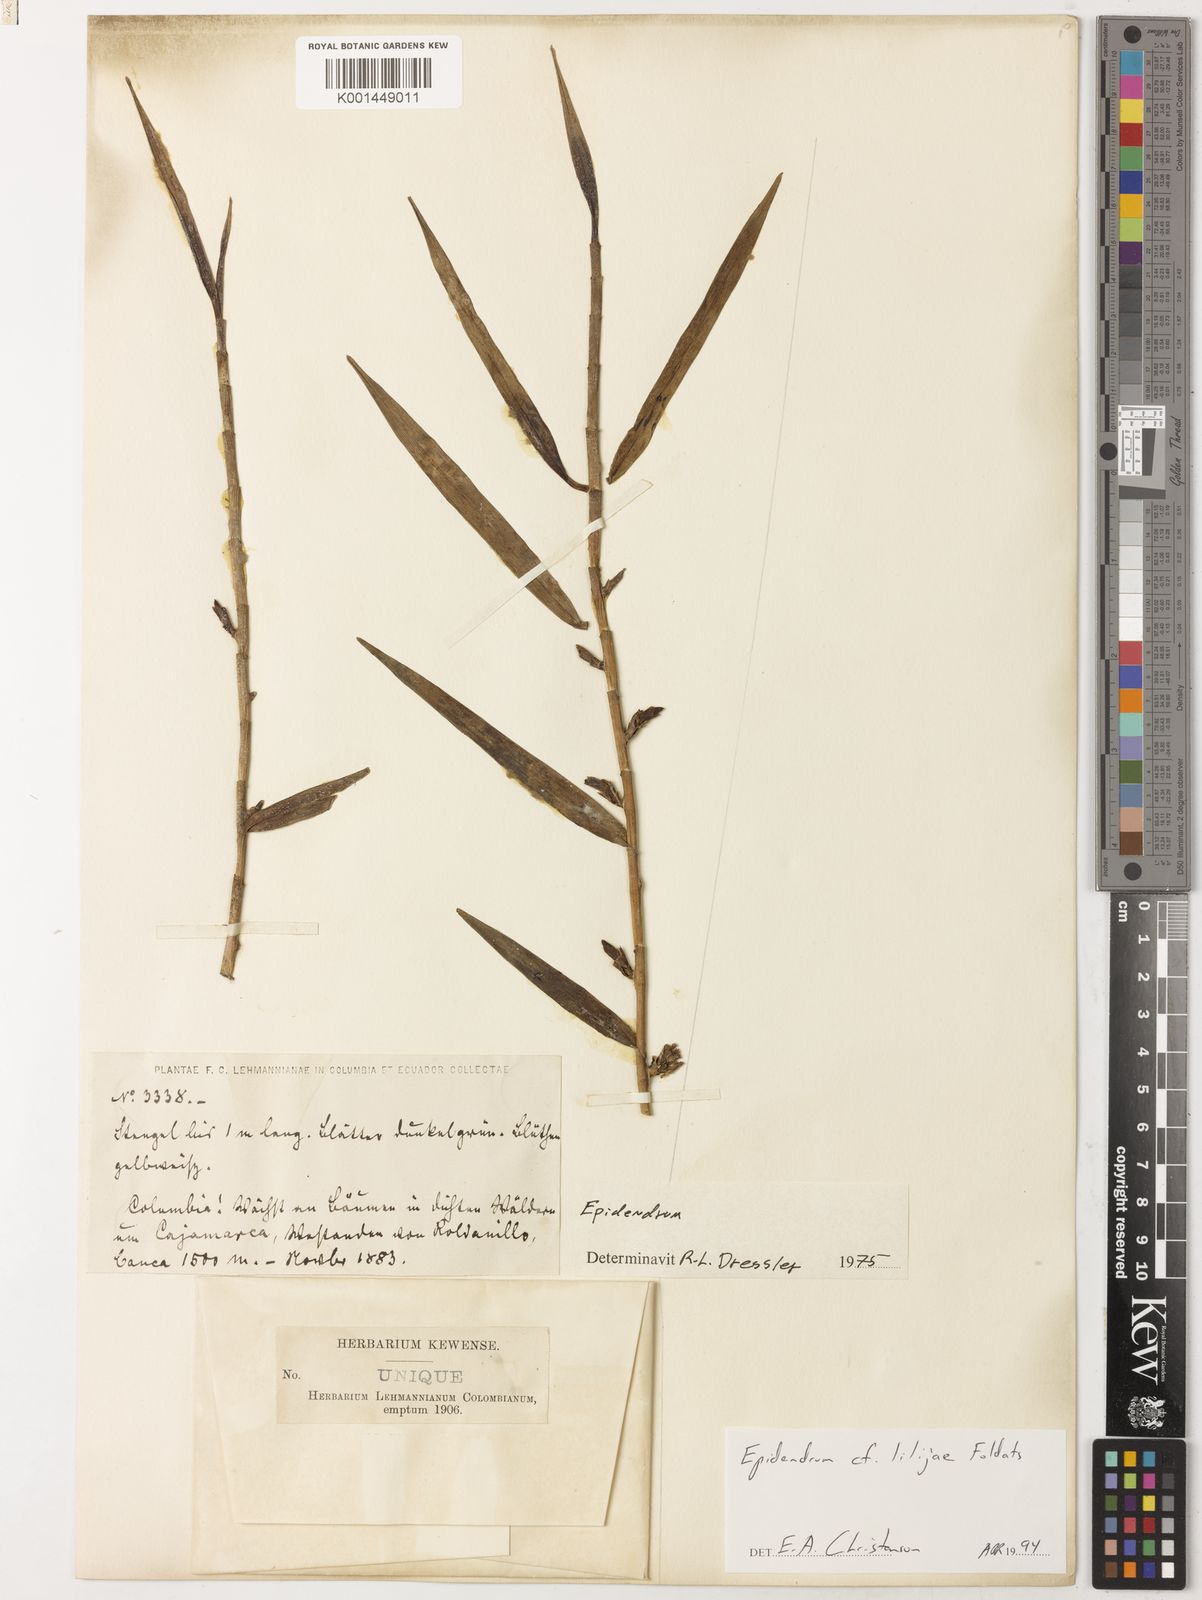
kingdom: Plantae
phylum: Tracheophyta
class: Liliopsida
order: Asparagales
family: Orchidaceae
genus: Epidendrum
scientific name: Epidendrum lilijae
